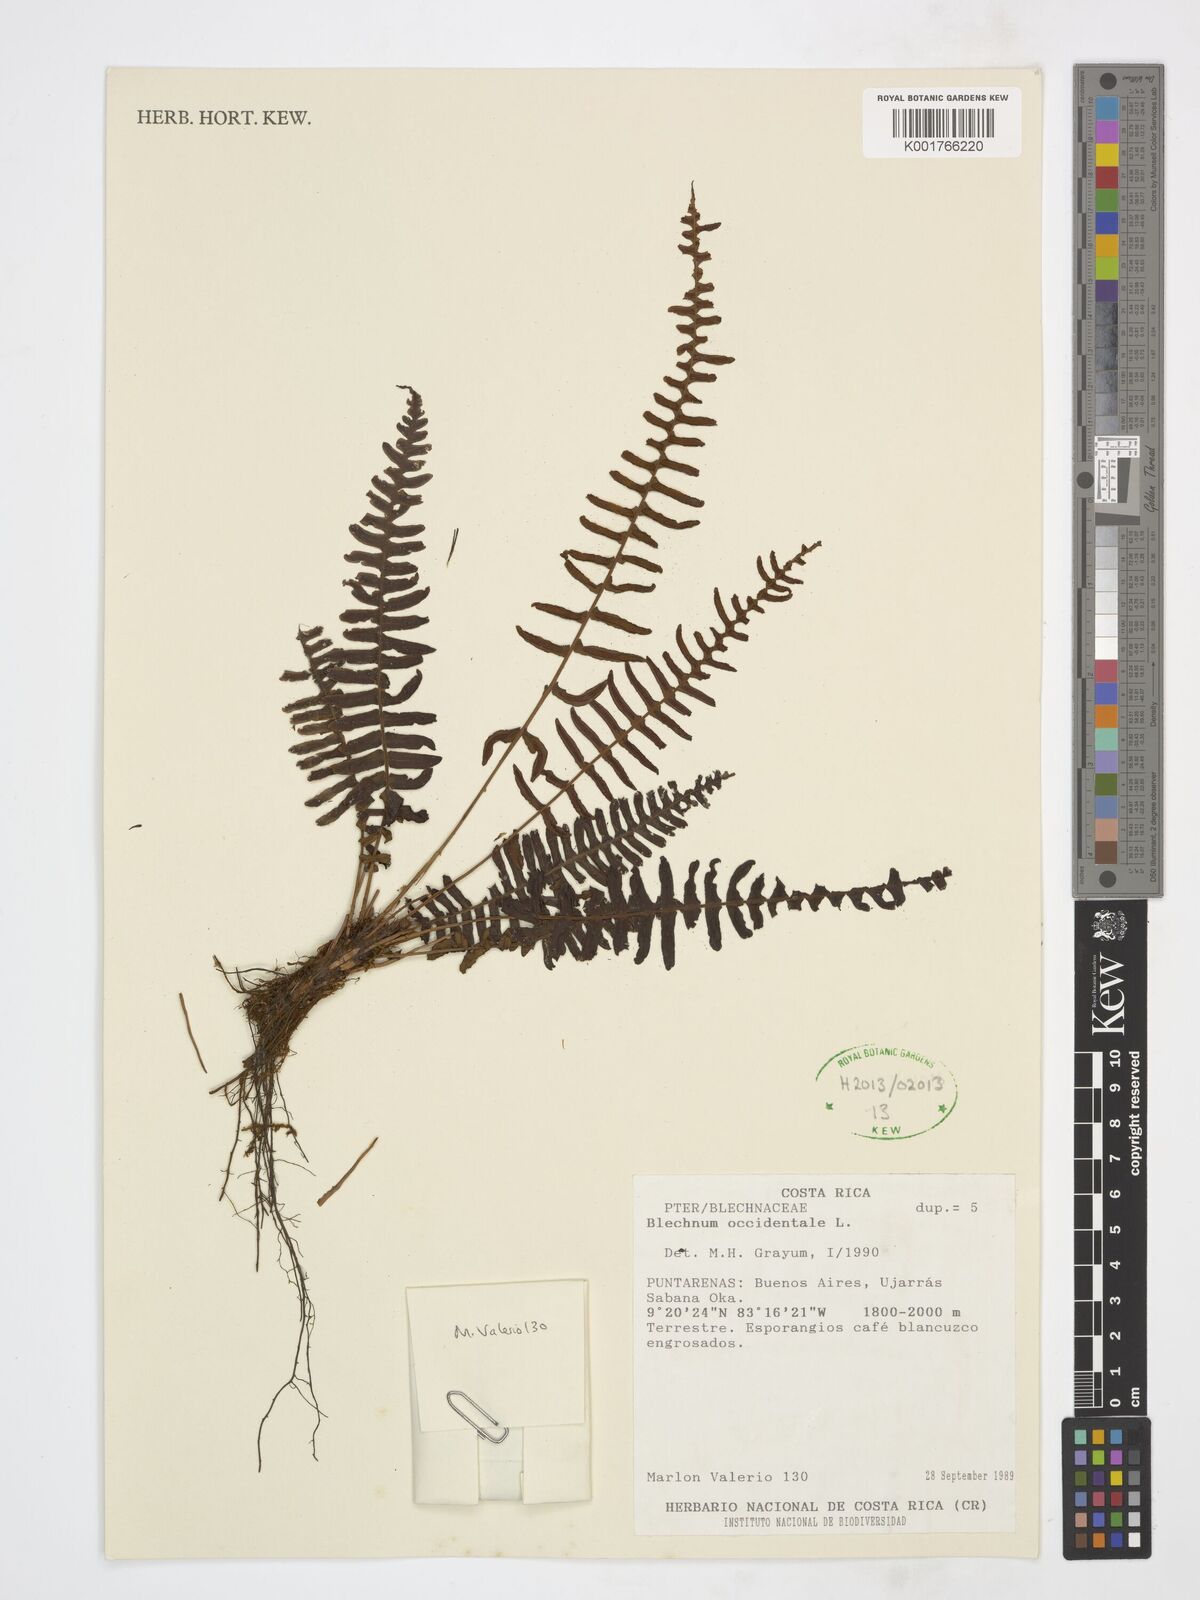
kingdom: Plantae
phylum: Tracheophyta
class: Polypodiopsida
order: Polypodiales
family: Blechnaceae
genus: Blechnum
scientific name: Blechnum occidentale
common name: Hammock fern
